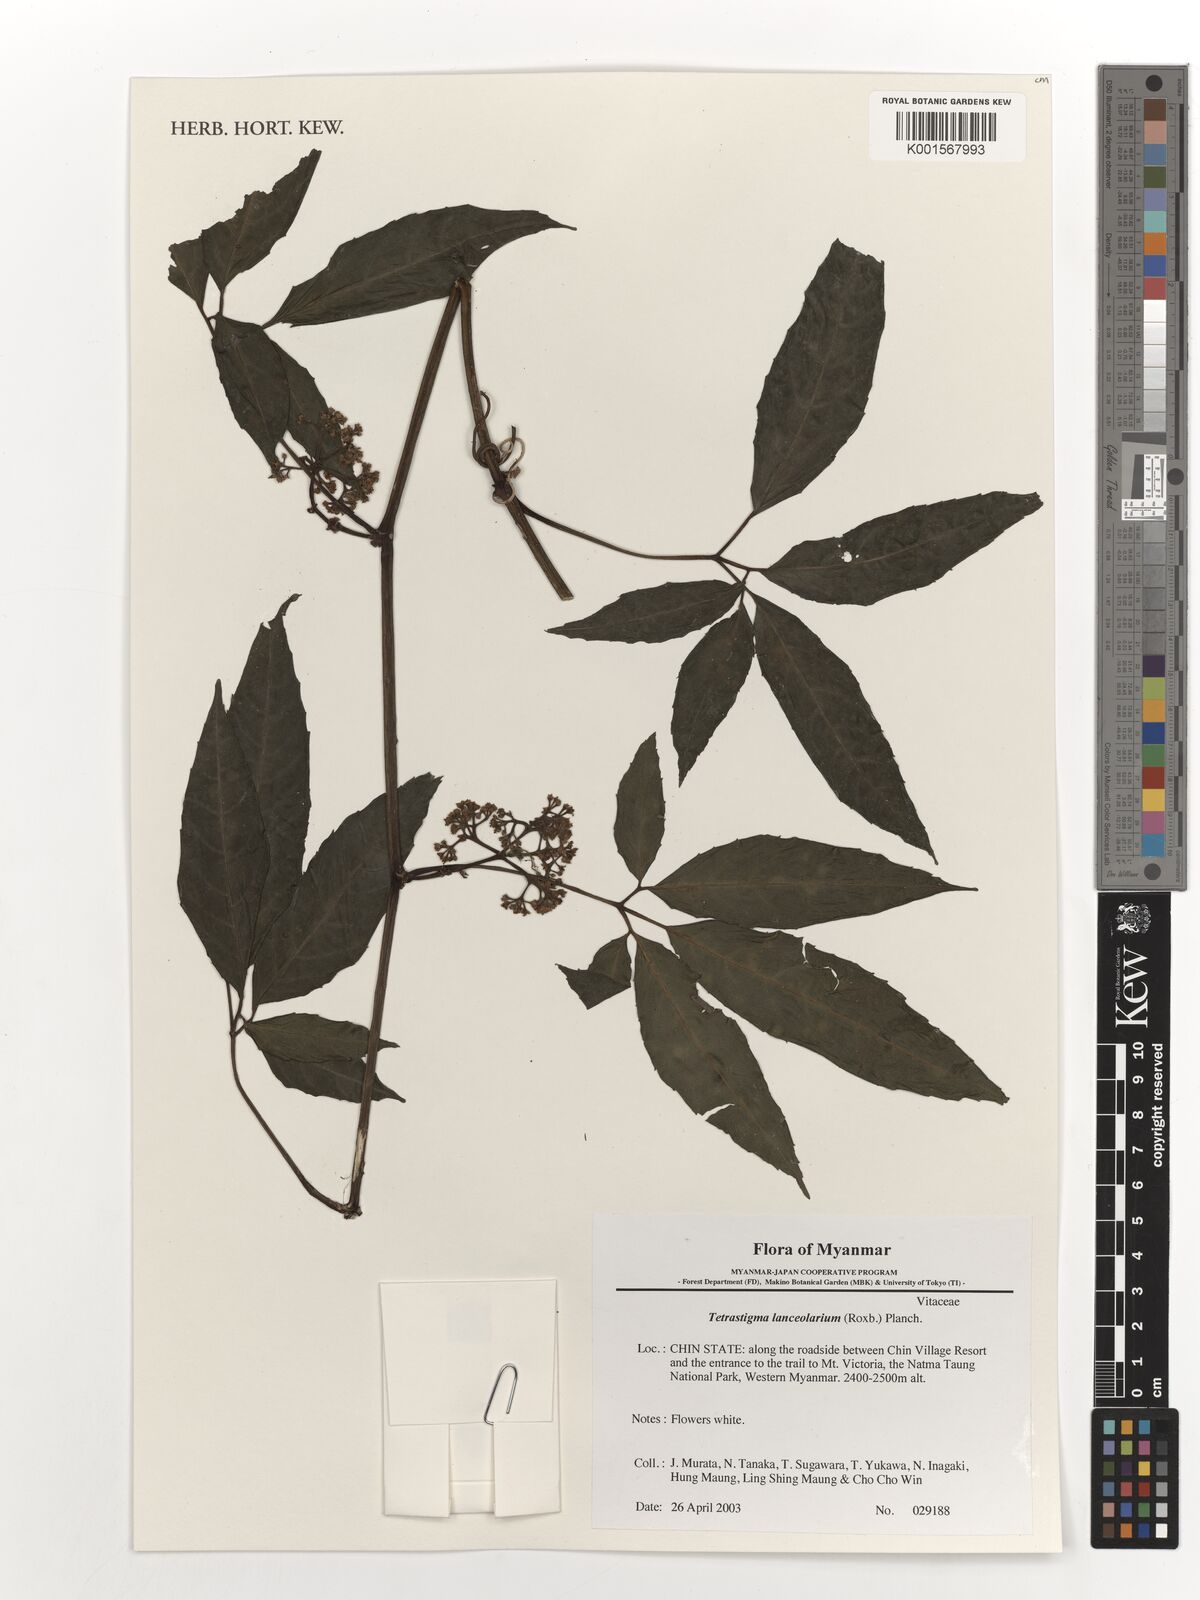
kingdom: Plantae
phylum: Tracheophyta
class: Magnoliopsida
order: Vitales
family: Vitaceae
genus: Tetrastigma
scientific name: Tetrastigma leucostaphylum
